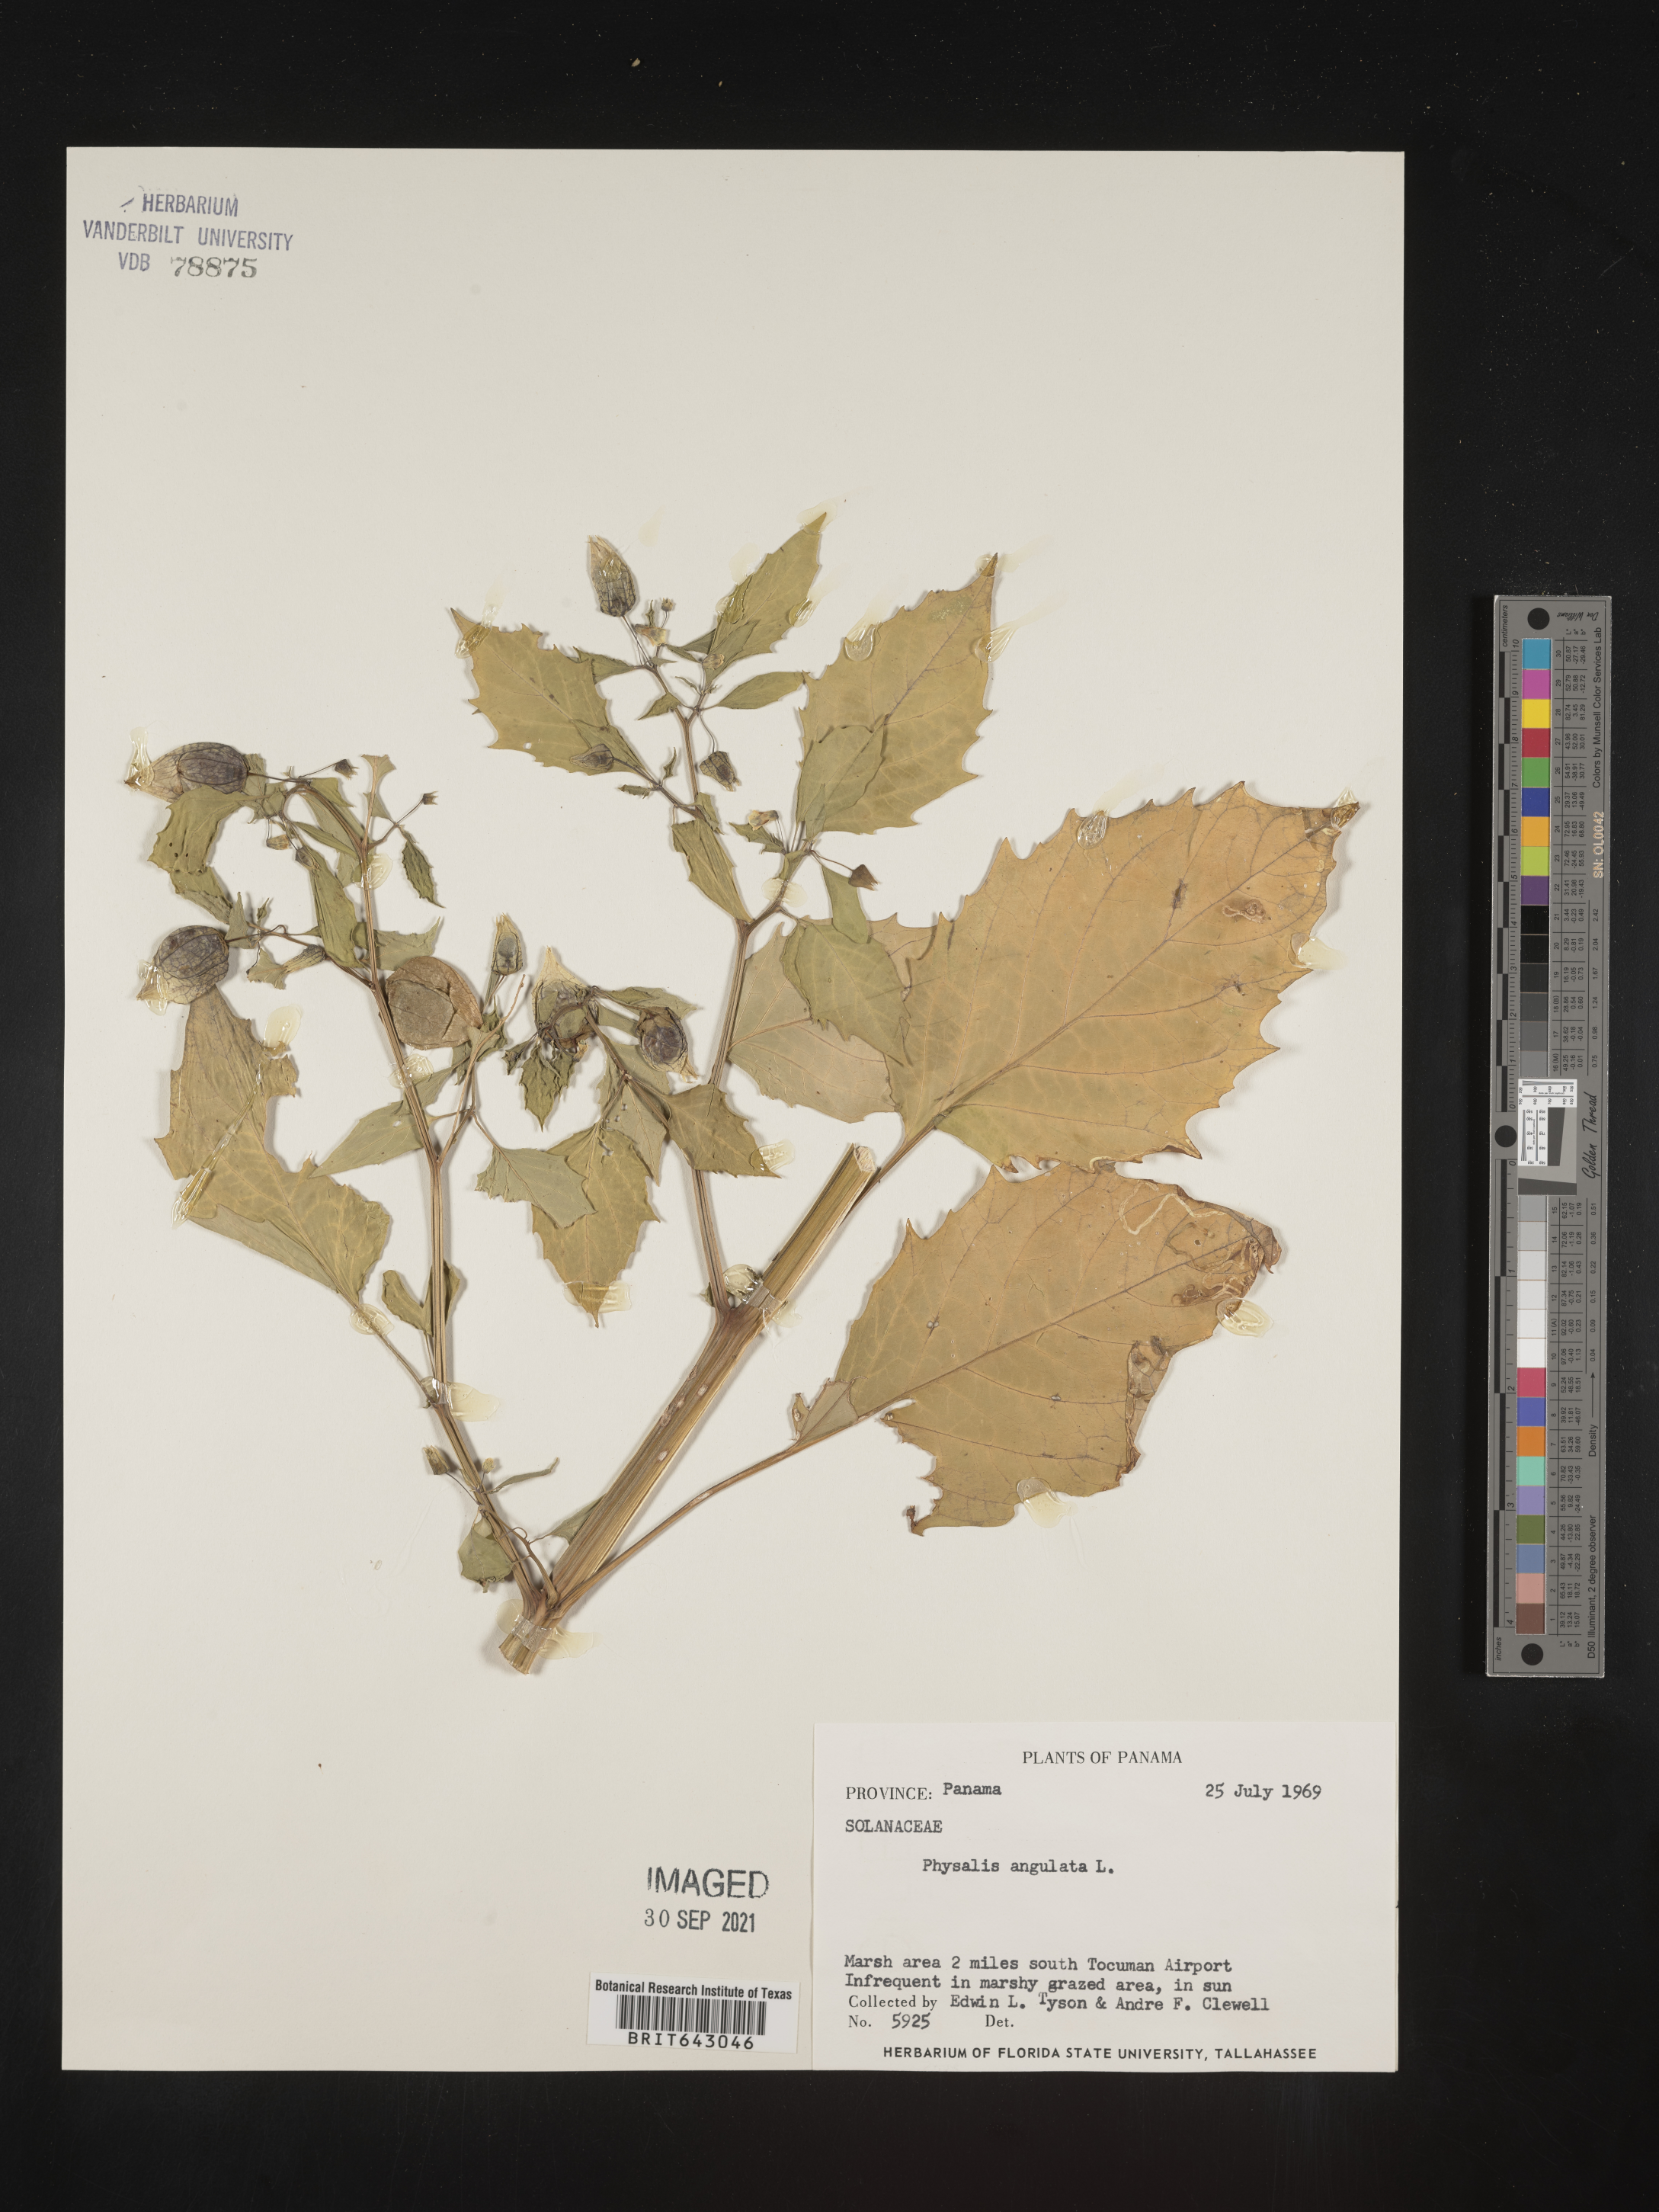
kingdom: Plantae
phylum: Tracheophyta
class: Magnoliopsida
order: Solanales
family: Solanaceae
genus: Physalis
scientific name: Physalis
